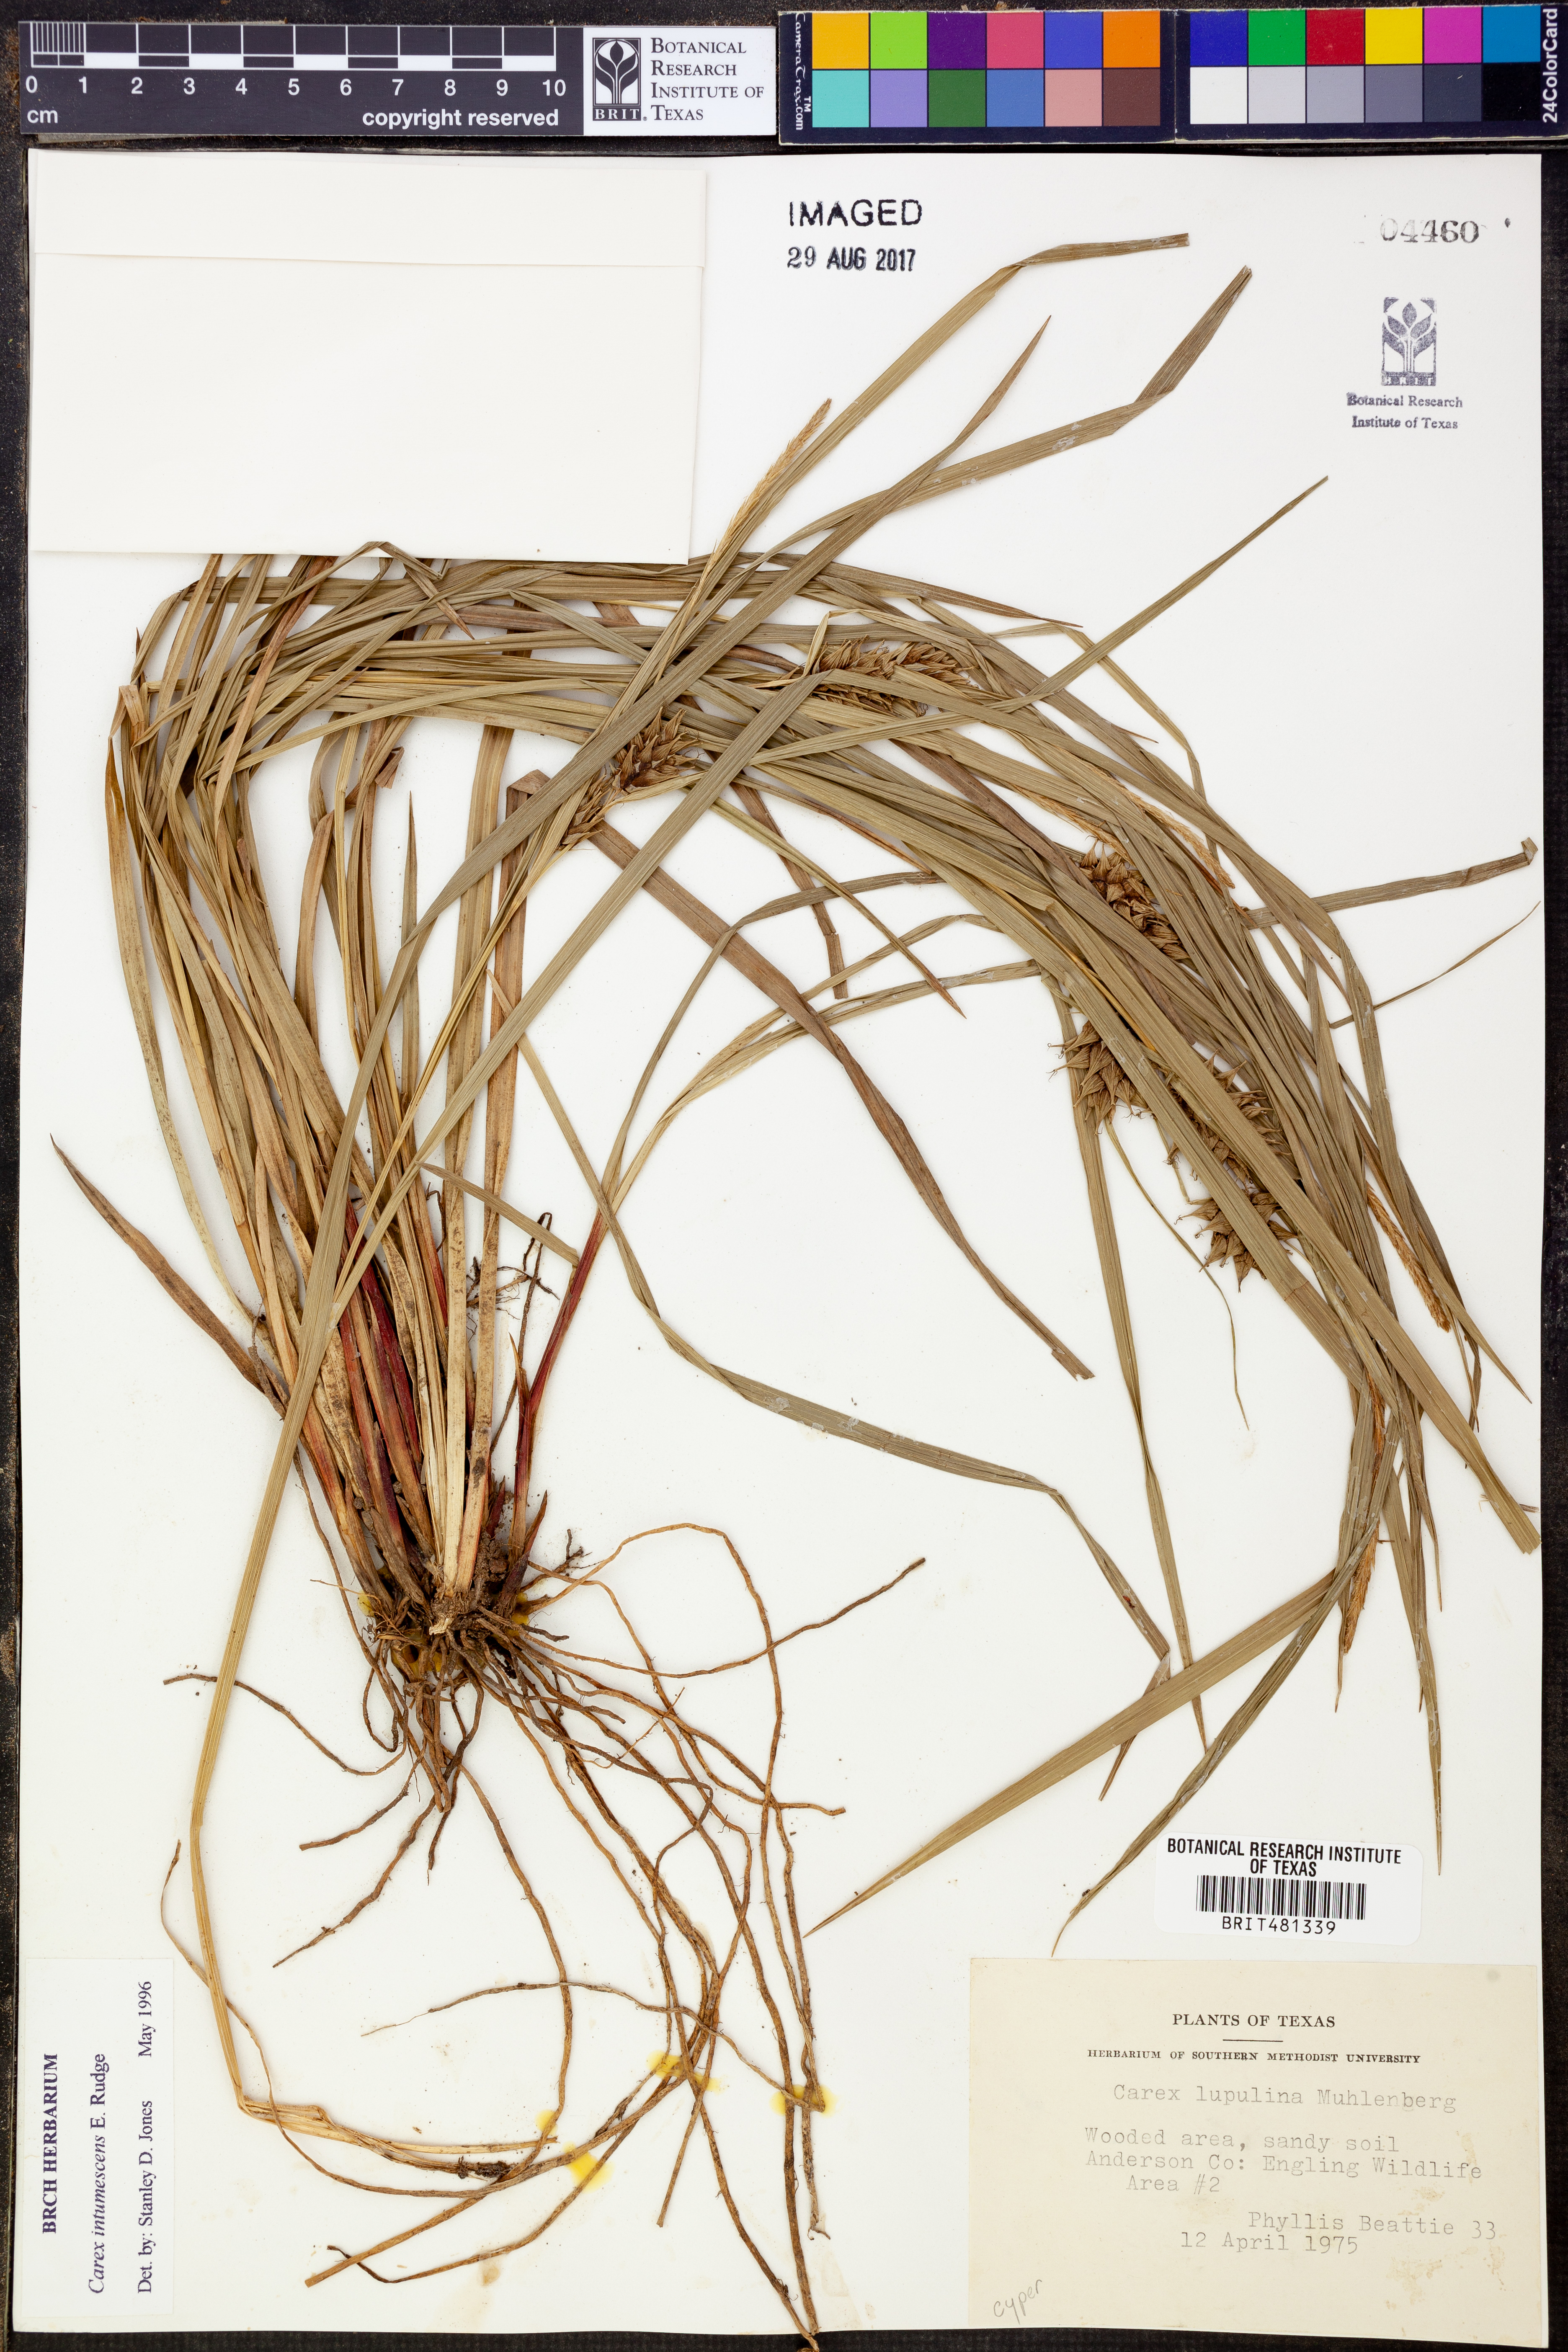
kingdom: Plantae
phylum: Tracheophyta
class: Liliopsida
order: Poales
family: Cyperaceae
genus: Carex
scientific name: Carex lupulina
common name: Hop sedge
